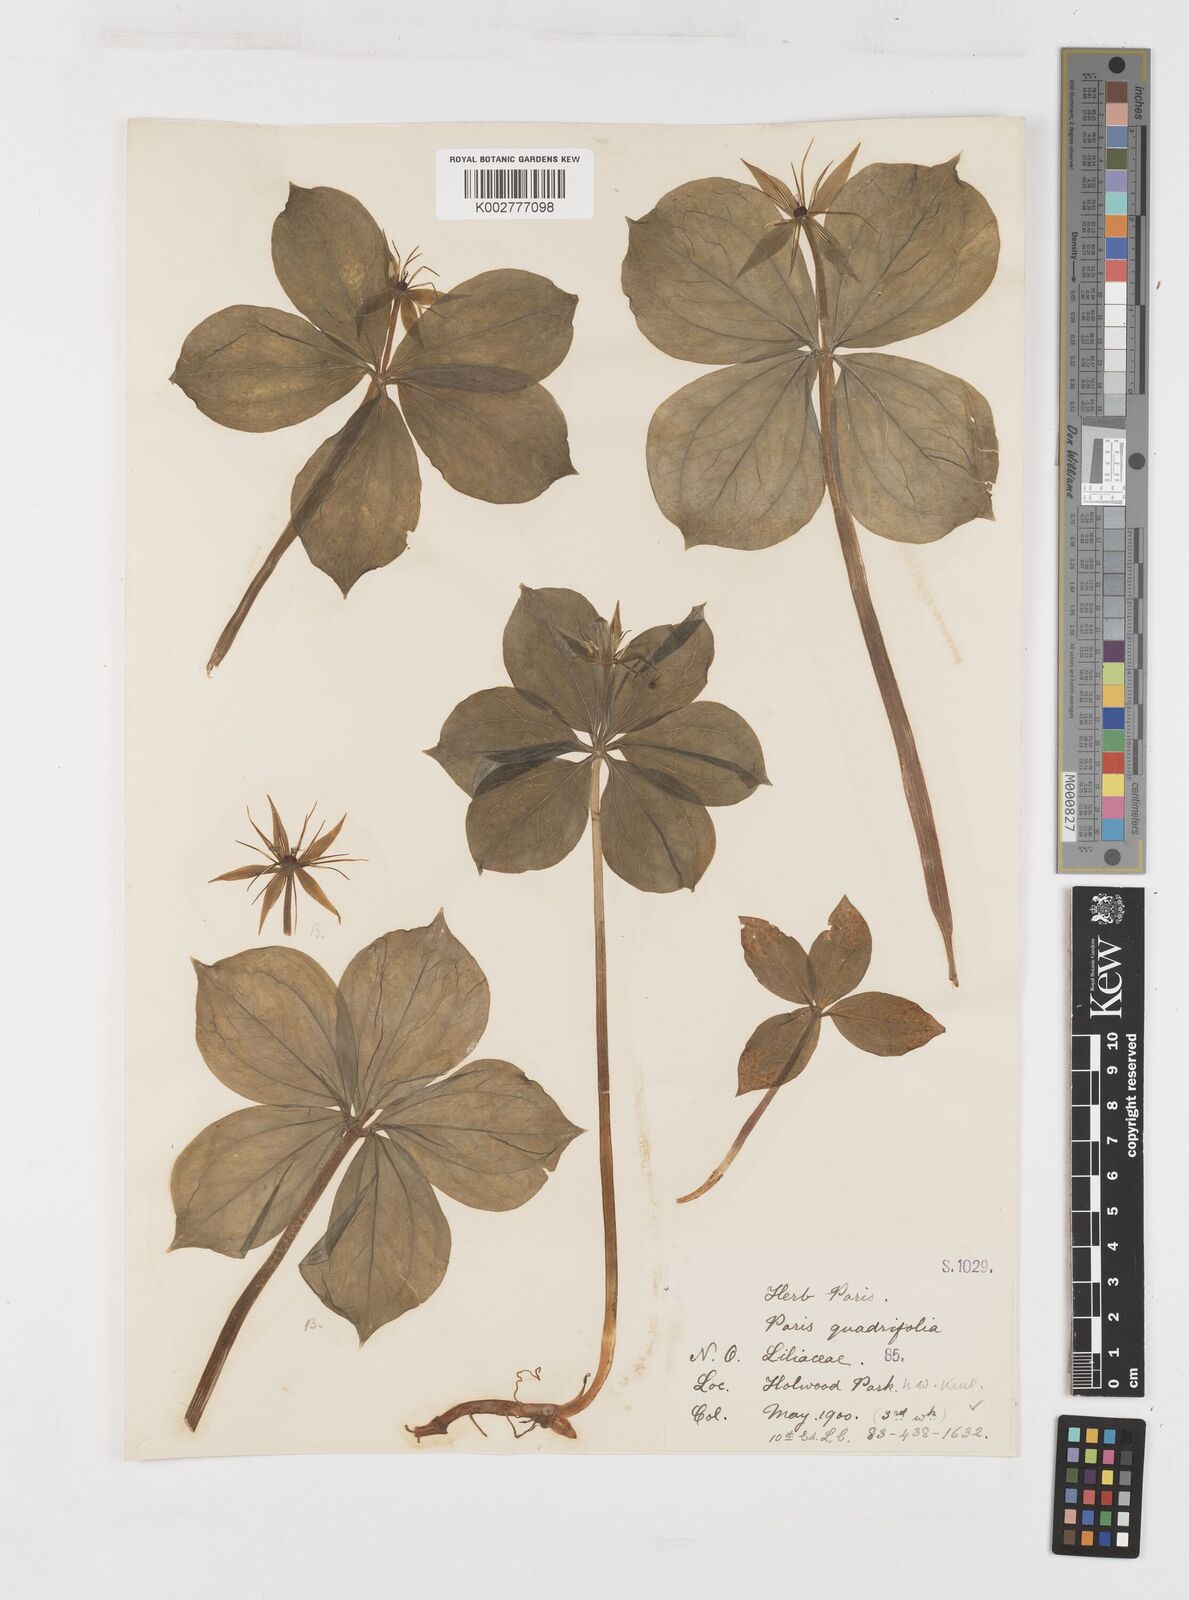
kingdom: Plantae
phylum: Tracheophyta
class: Liliopsida
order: Liliales
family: Melanthiaceae
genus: Paris
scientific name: Paris quadrifolia
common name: Herb-paris
